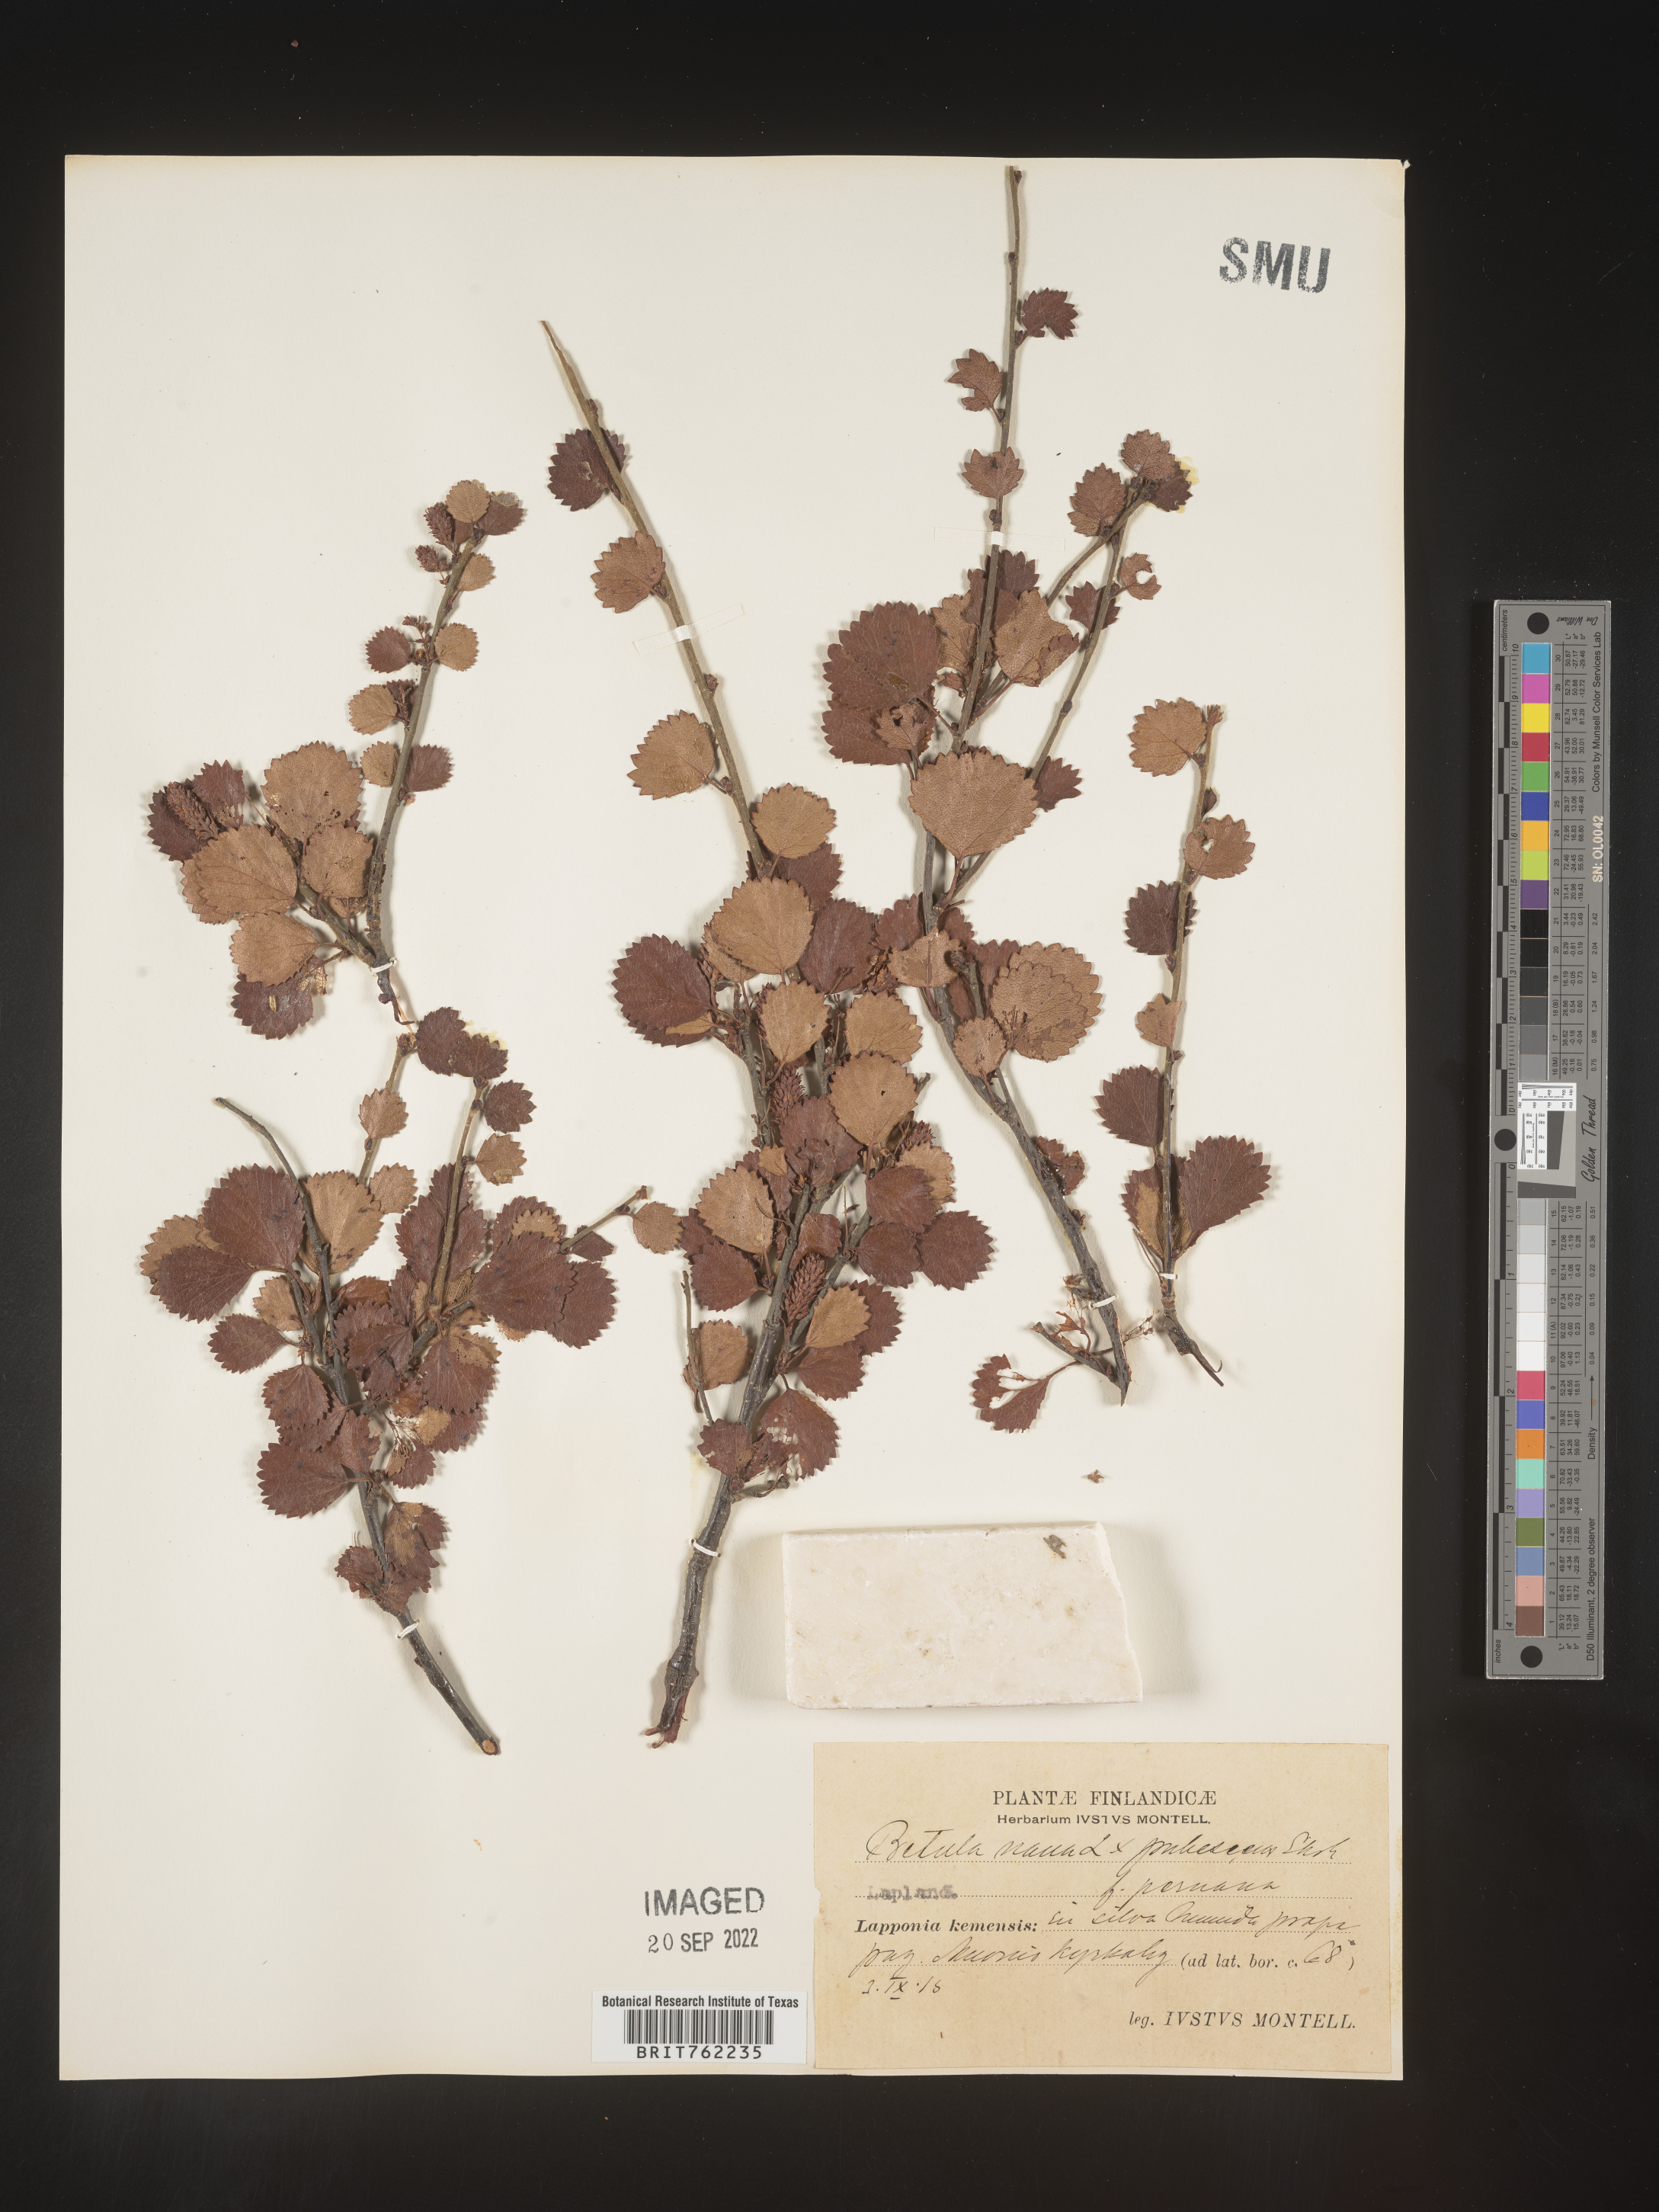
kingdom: Plantae
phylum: Tracheophyta
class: Magnoliopsida
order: Fagales
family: Betulaceae
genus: Betula
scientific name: Betula
